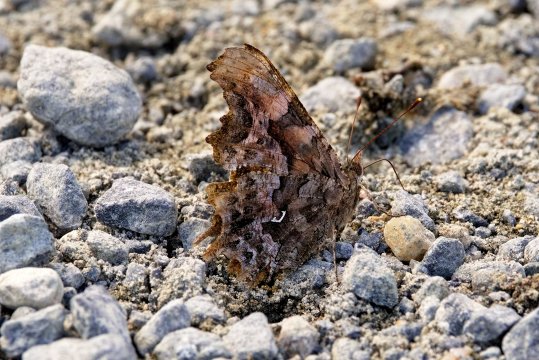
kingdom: Animalia
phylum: Arthropoda
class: Insecta
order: Lepidoptera
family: Nymphalidae
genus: Polygonia
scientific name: Polygonia faunus
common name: Green Comma
